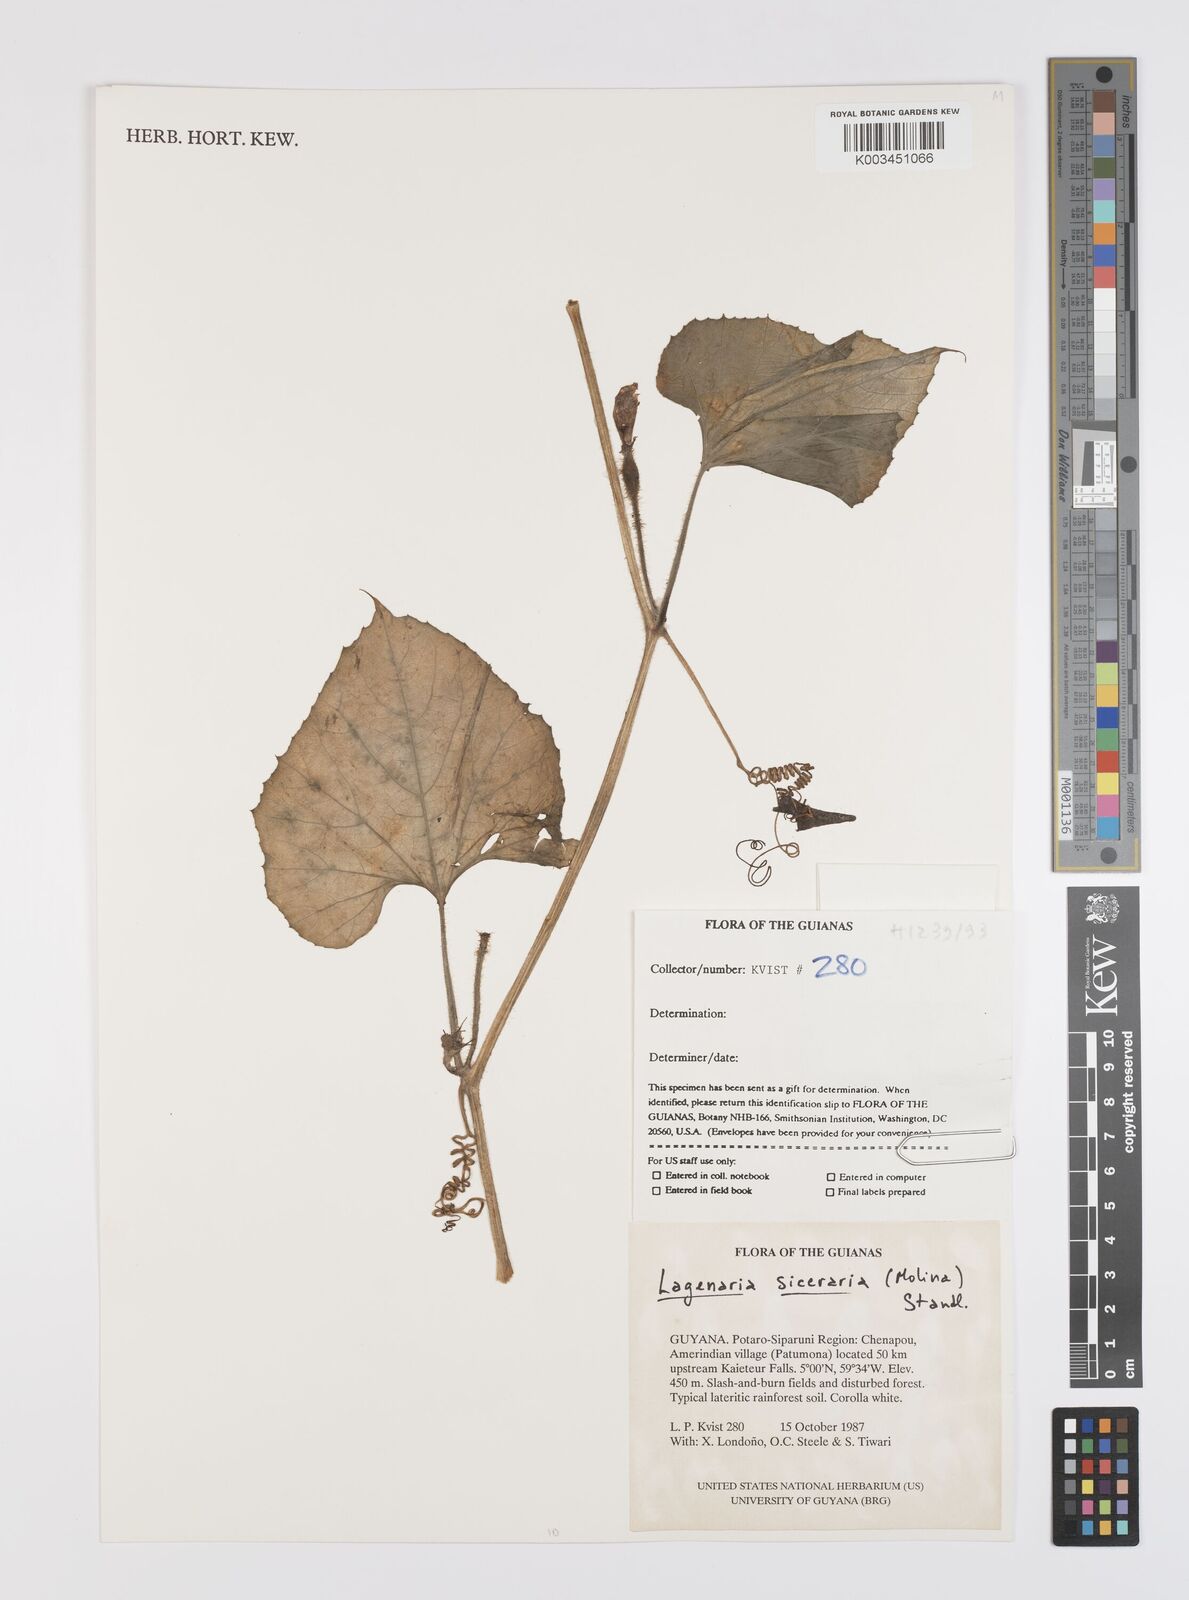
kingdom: Plantae
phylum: Tracheophyta
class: Magnoliopsida
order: Cucurbitales
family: Cucurbitaceae
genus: Lagenaria
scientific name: Lagenaria siceraria
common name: Bottle gourd
